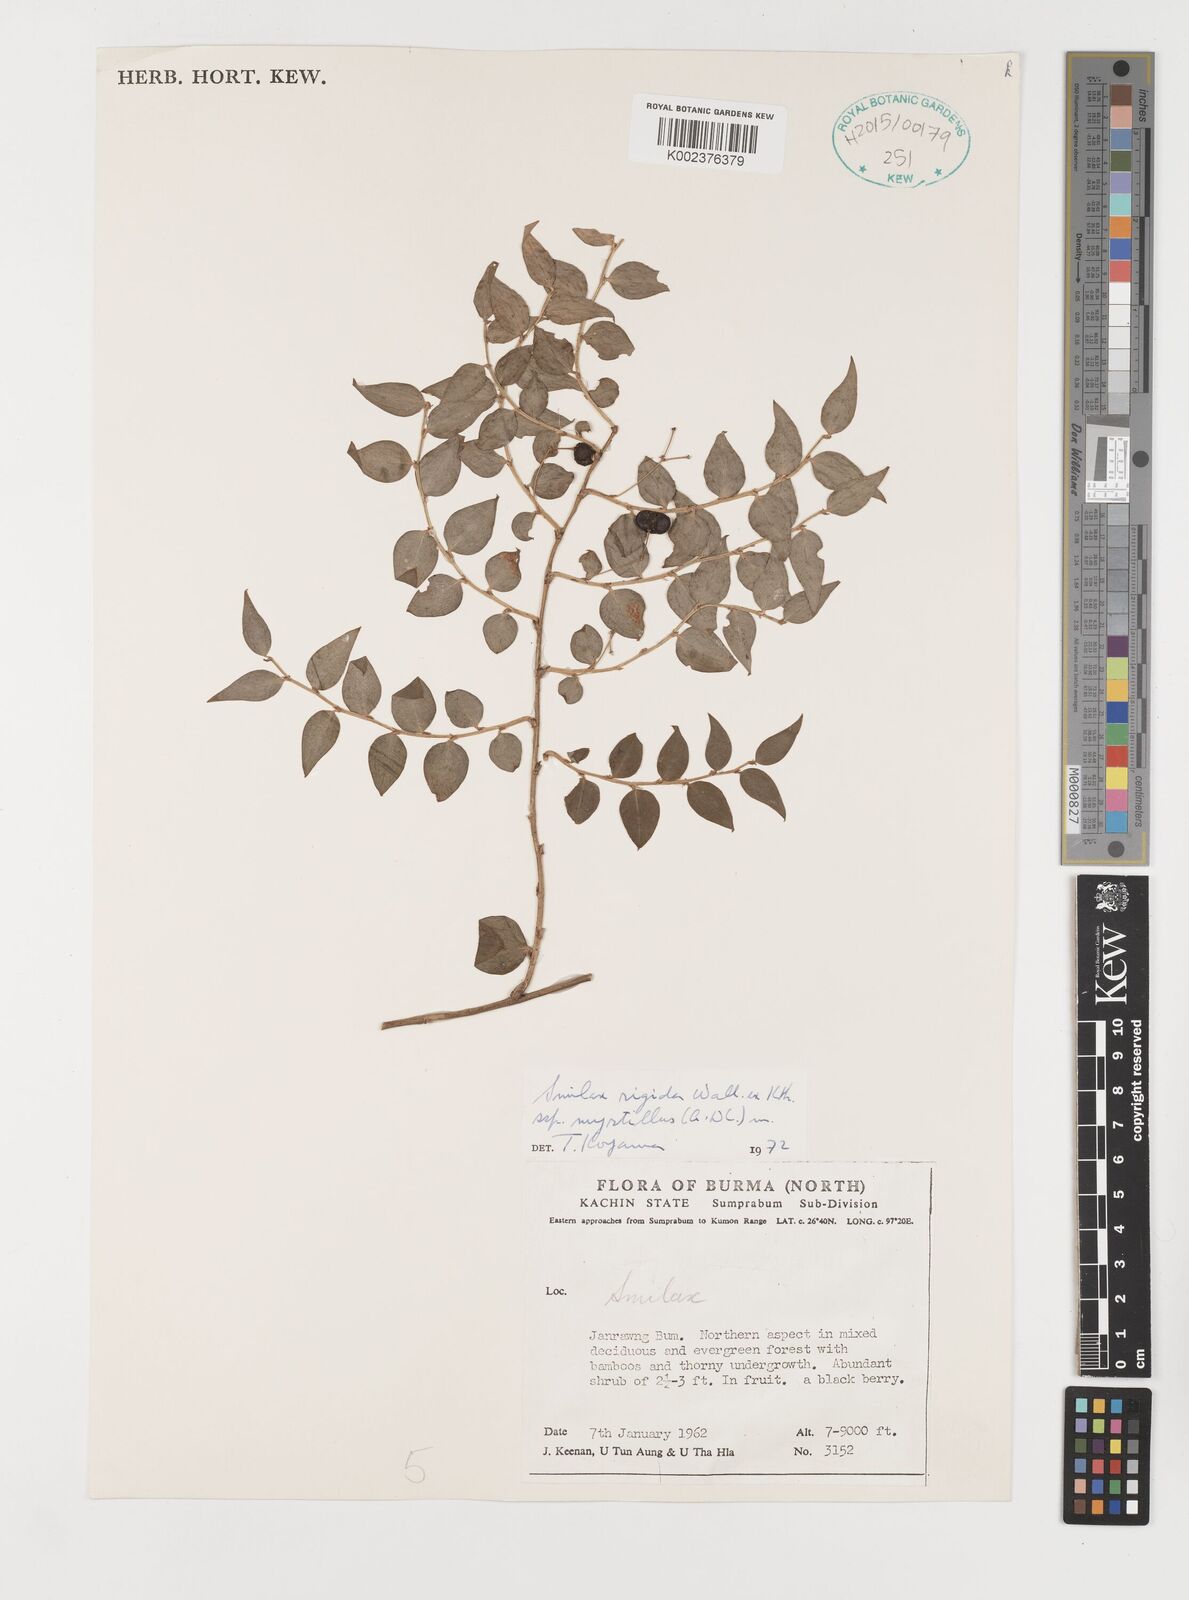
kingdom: Plantae
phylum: Tracheophyta
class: Liliopsida
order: Liliales
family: Smilacaceae
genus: Smilax
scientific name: Smilax myrtillus
